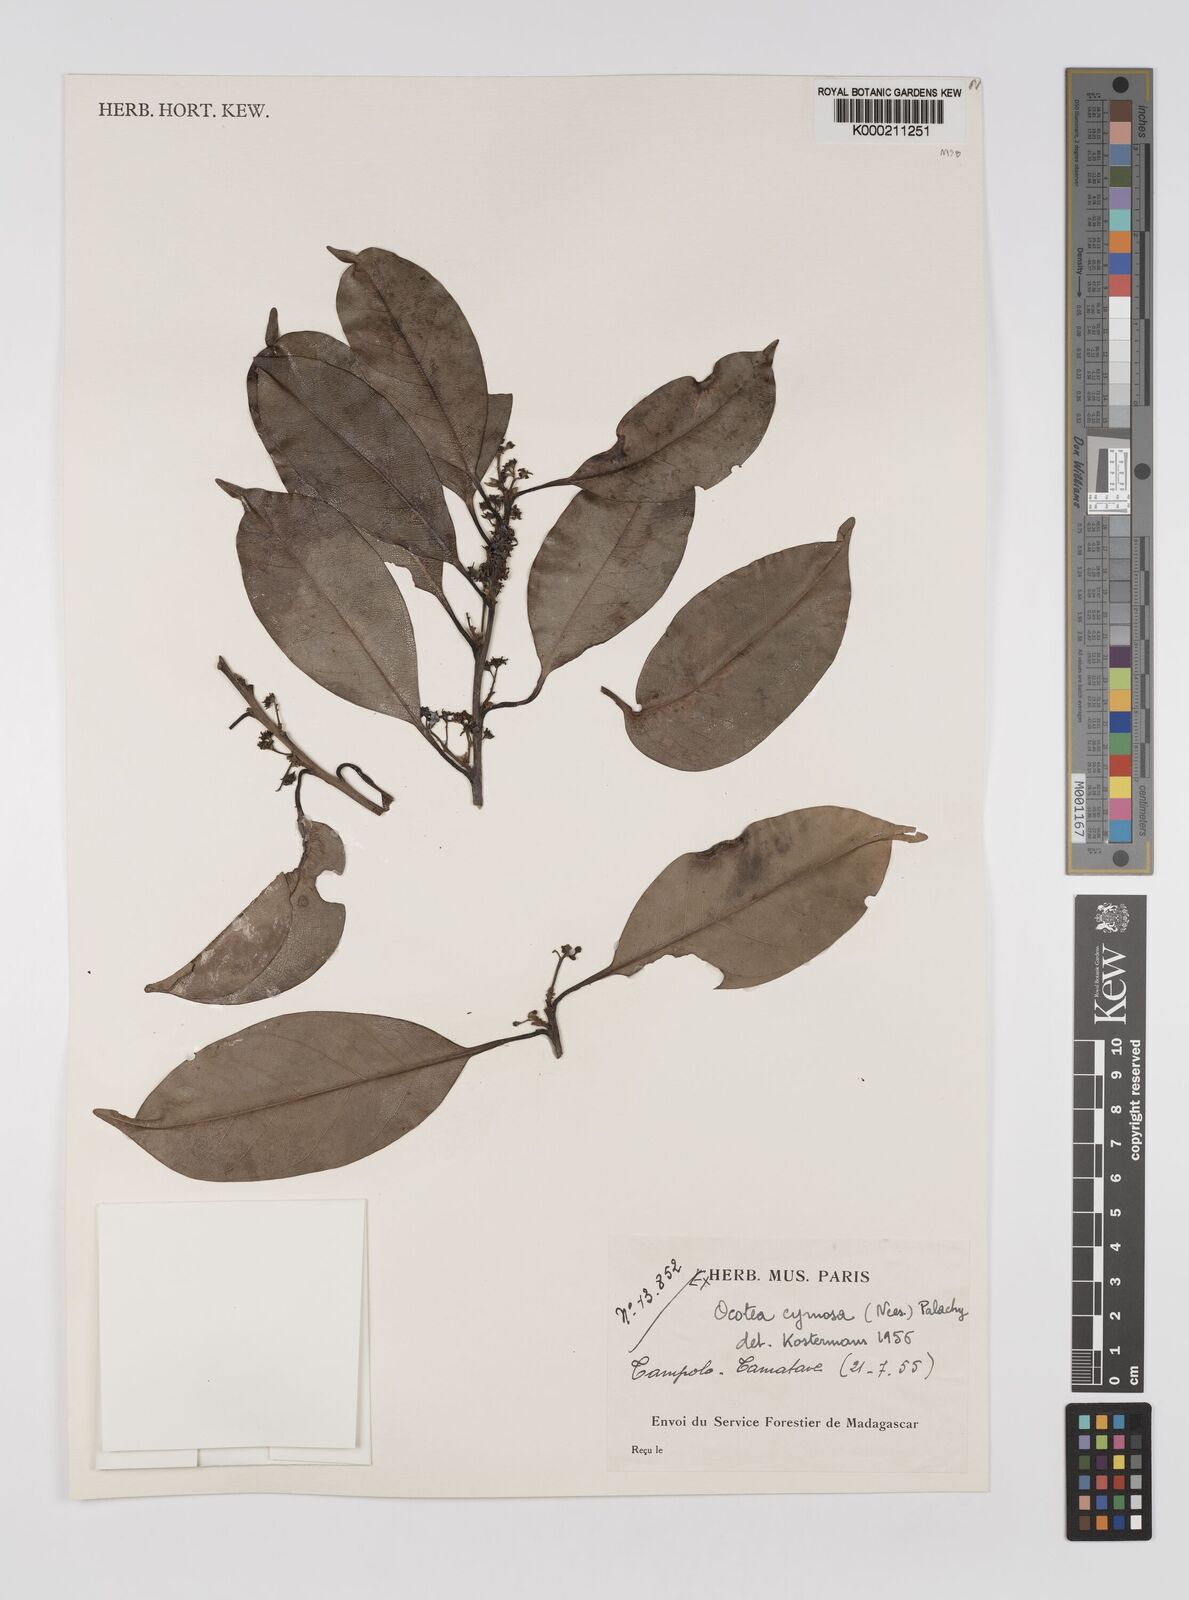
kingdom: Plantae
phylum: Tracheophyta
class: Magnoliopsida
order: Laurales
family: Lauraceae
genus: Mespilodaphne
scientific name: Mespilodaphne cymosa
